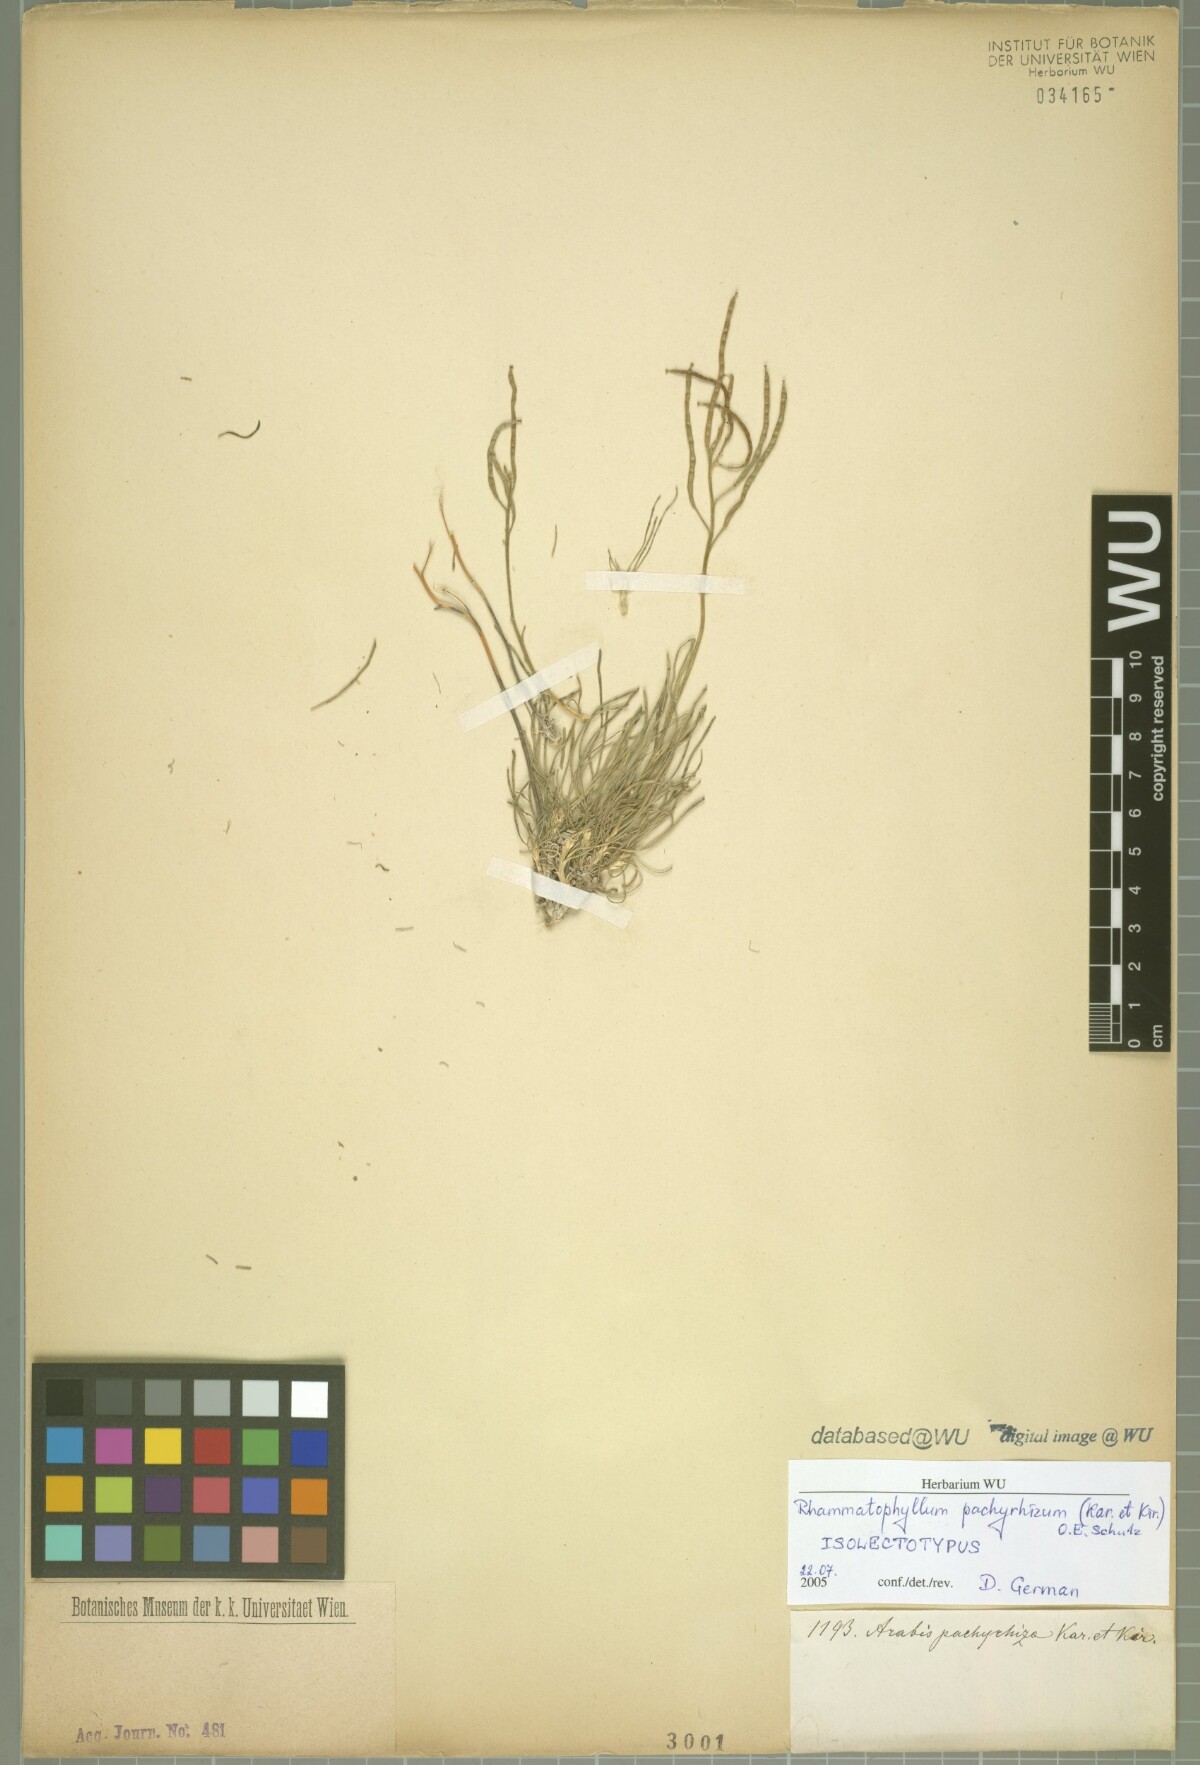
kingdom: Plantae
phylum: Tracheophyta
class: Magnoliopsida
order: Brassicales
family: Brassicaceae
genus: Rhammatophyllum
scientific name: Rhammatophyllum pachyrhizum
